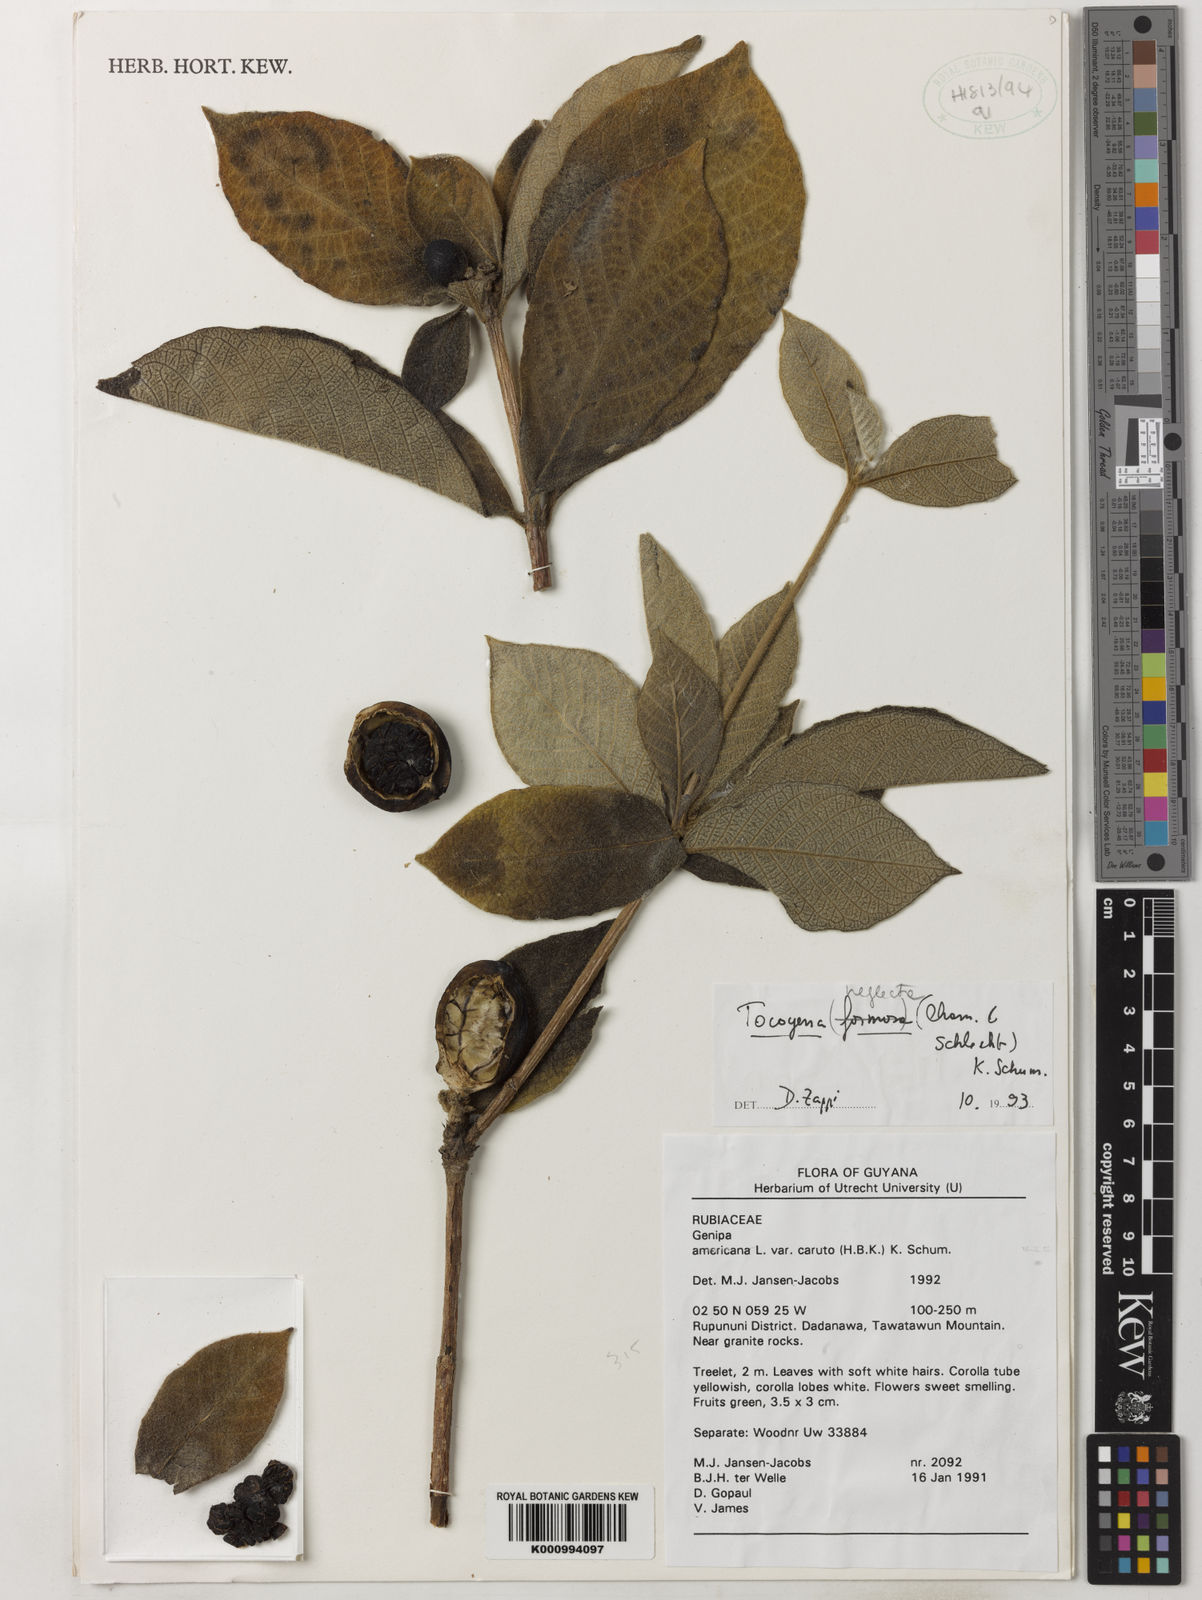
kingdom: Plantae
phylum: Tracheophyta
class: Magnoliopsida
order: Gentianales
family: Rubiaceae
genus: Tocoyena
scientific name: Tocoyena neglecta
